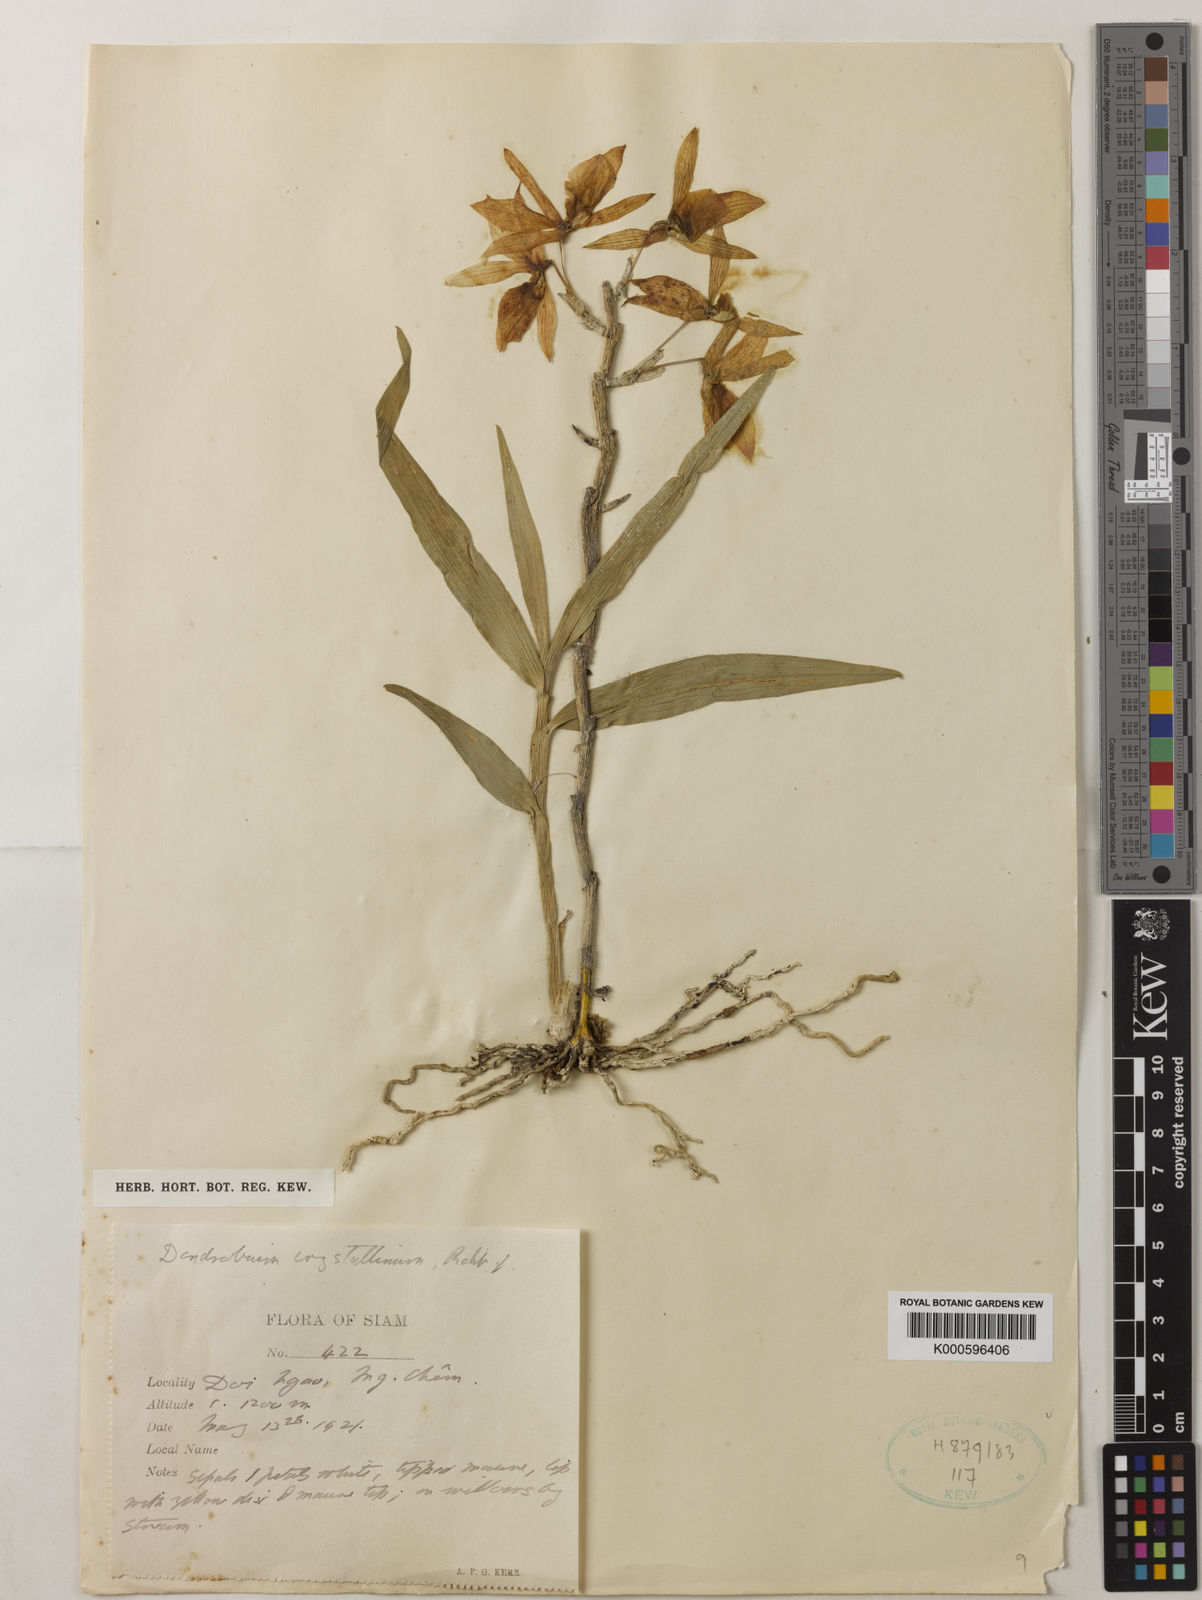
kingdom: Plantae
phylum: Tracheophyta
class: Liliopsida
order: Asparagales
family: Orchidaceae
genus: Dendrobium
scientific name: Dendrobium crystallinum
